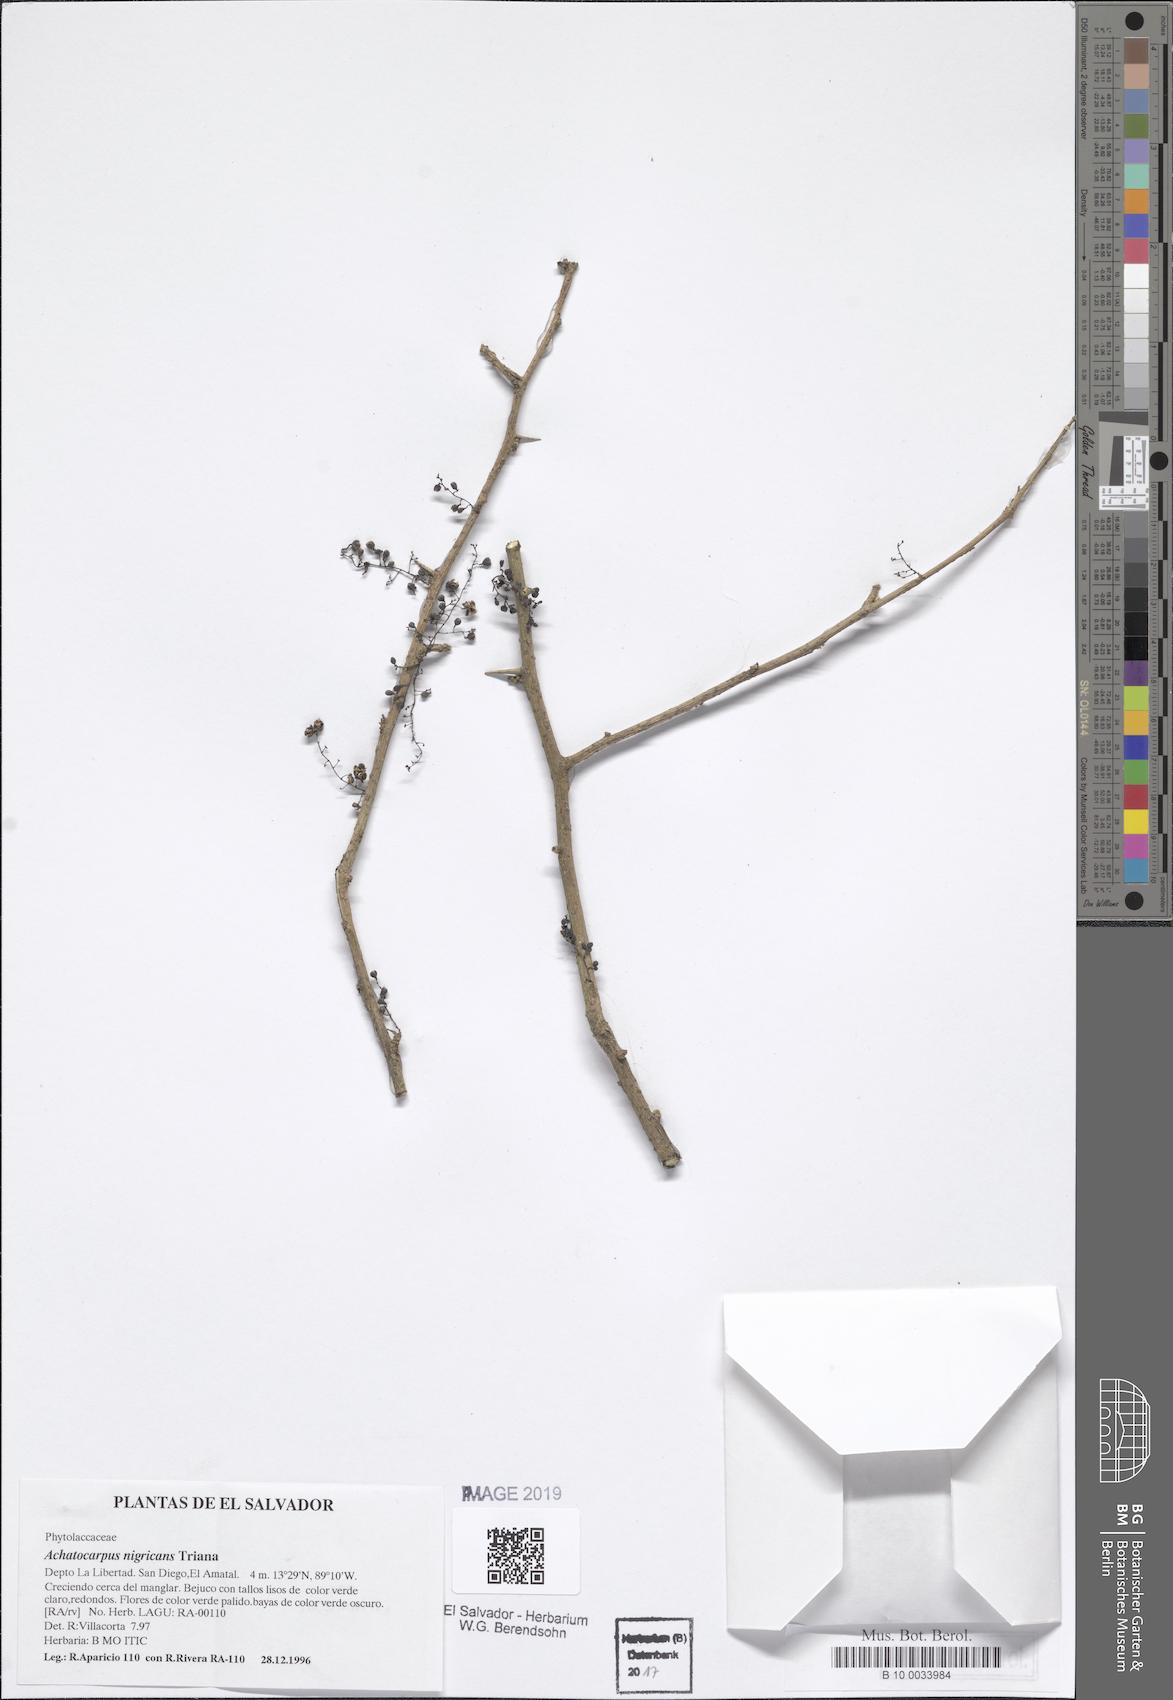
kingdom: Plantae
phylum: Tracheophyta
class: Magnoliopsida
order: Caryophyllales
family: Achatocarpaceae
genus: Achatocarpus
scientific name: Achatocarpus nigricans
